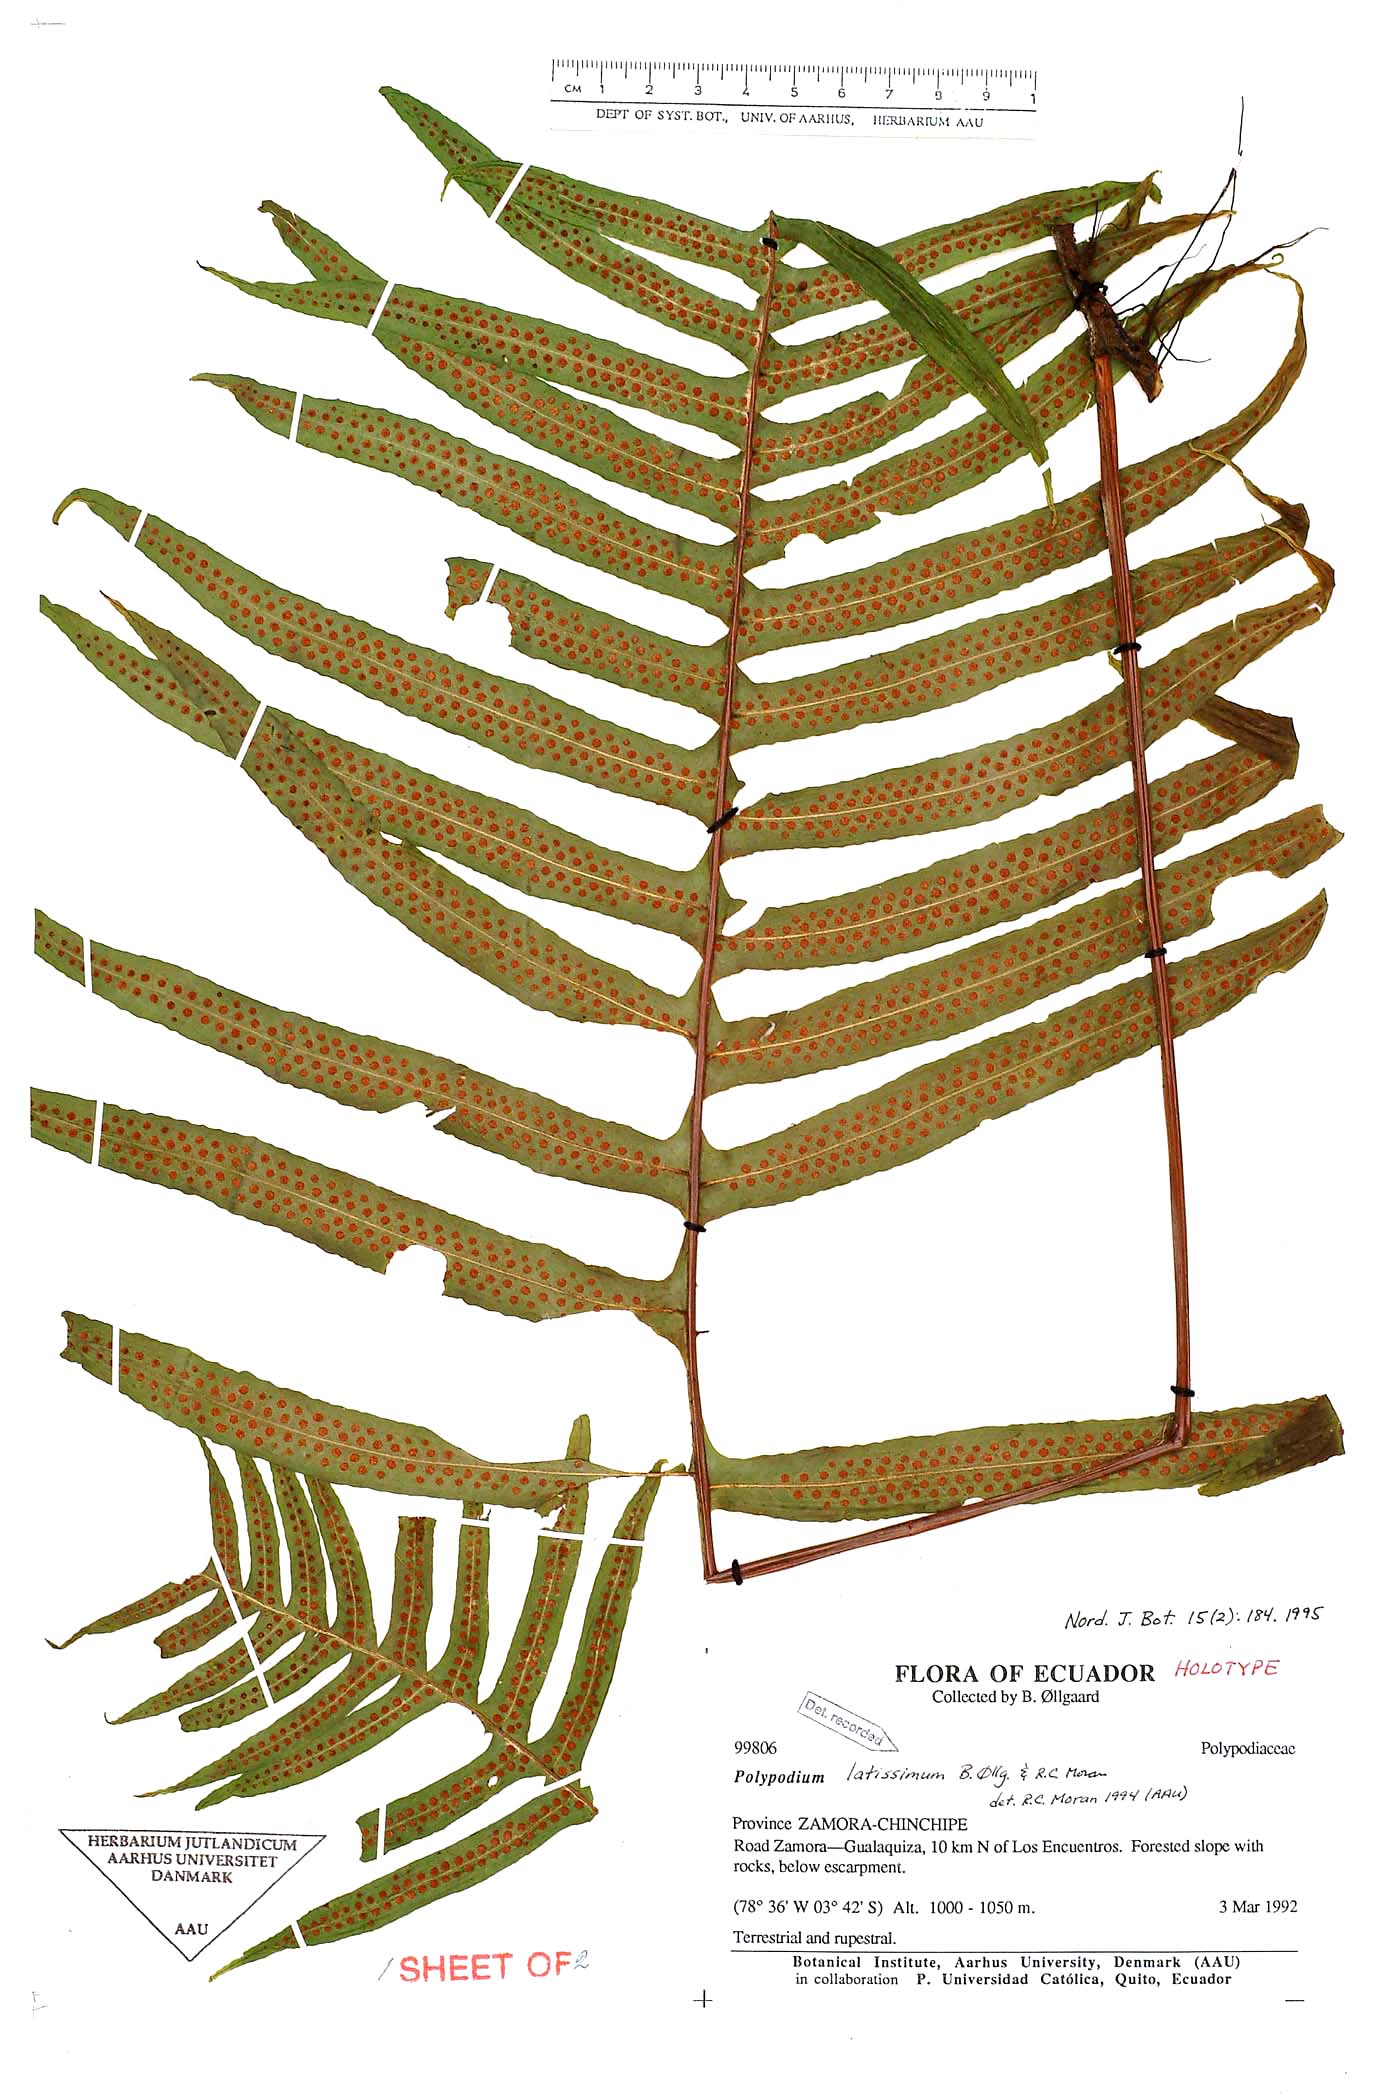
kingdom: Plantae
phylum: Tracheophyta
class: Polypodiopsida
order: Polypodiales
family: Polypodiaceae
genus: Serpocaulon
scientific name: Serpocaulon latissimum
